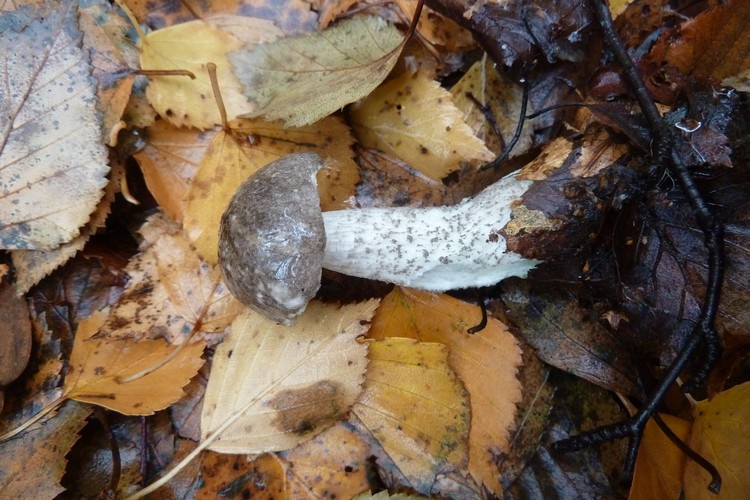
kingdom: Fungi
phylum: Basidiomycota
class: Agaricomycetes
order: Boletales
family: Boletaceae
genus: Leccinum
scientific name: Leccinum variicolor
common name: flammet skælrørhat
